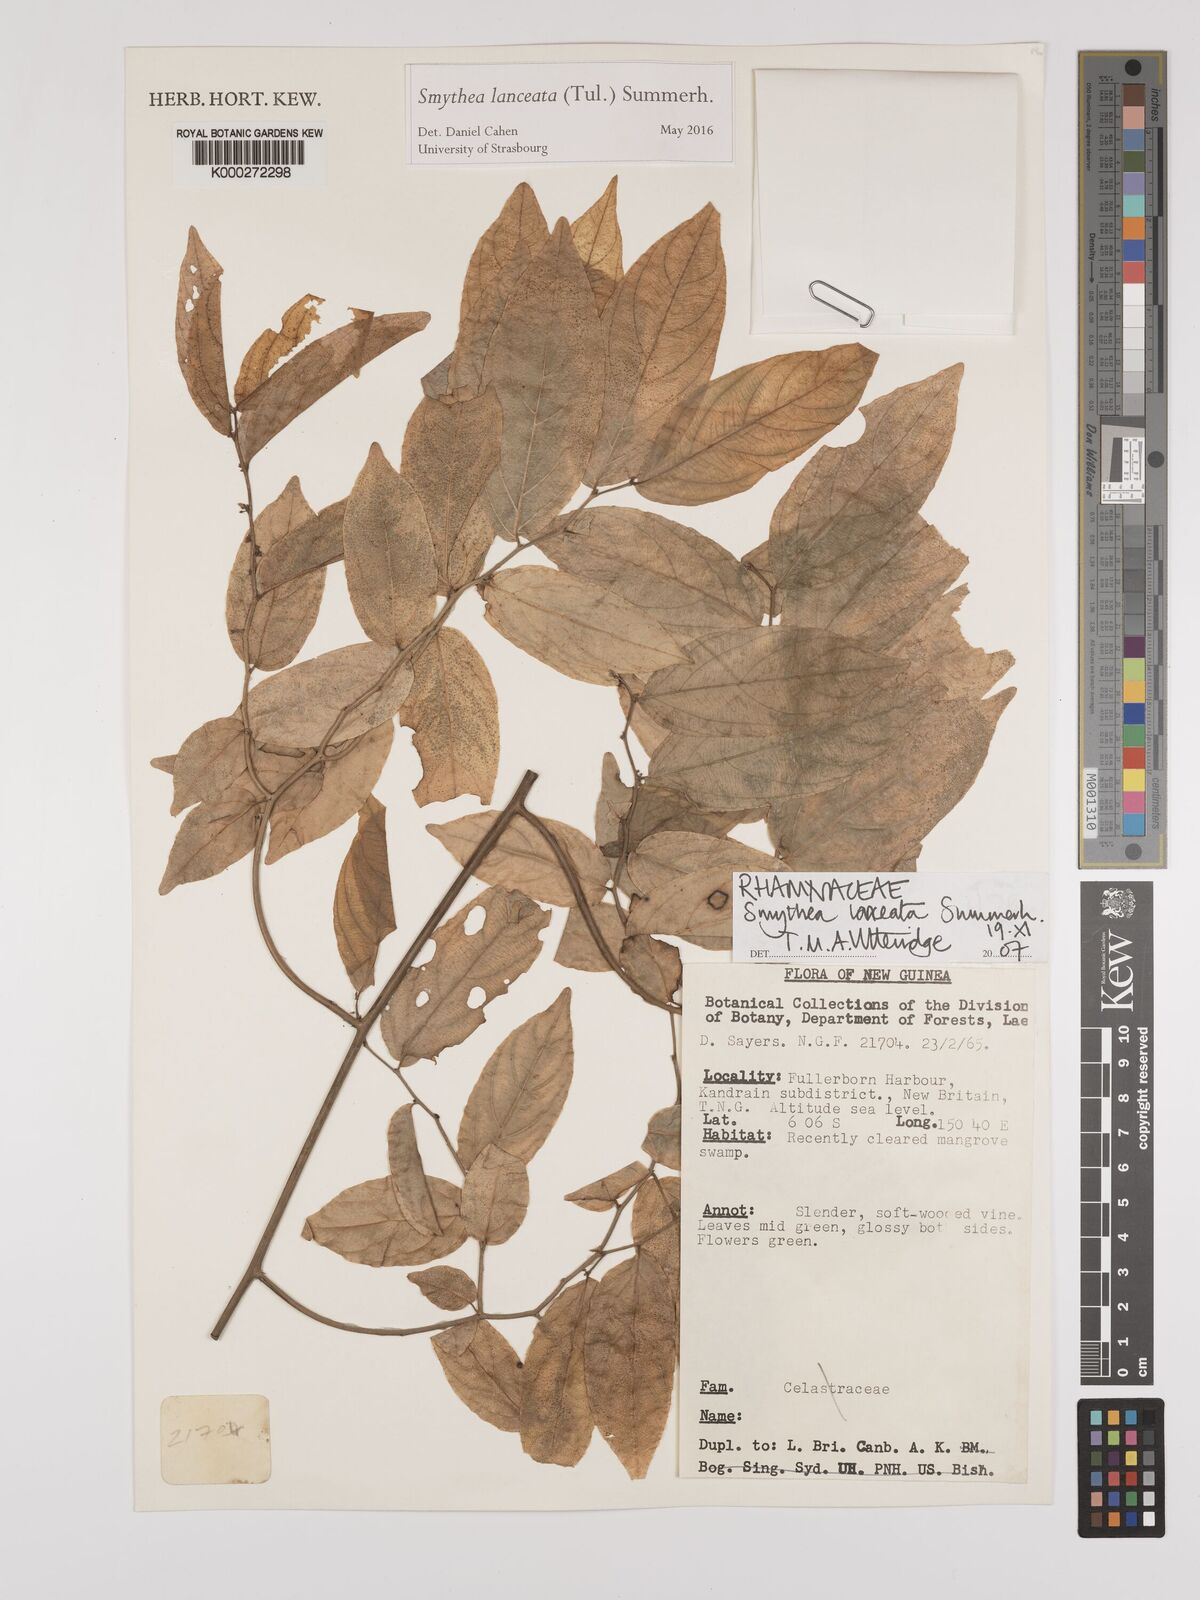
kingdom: Plantae
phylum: Tracheophyta
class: Magnoliopsida
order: Malpighiales
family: Violaceae
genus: Rinorea
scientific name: Rinorea
